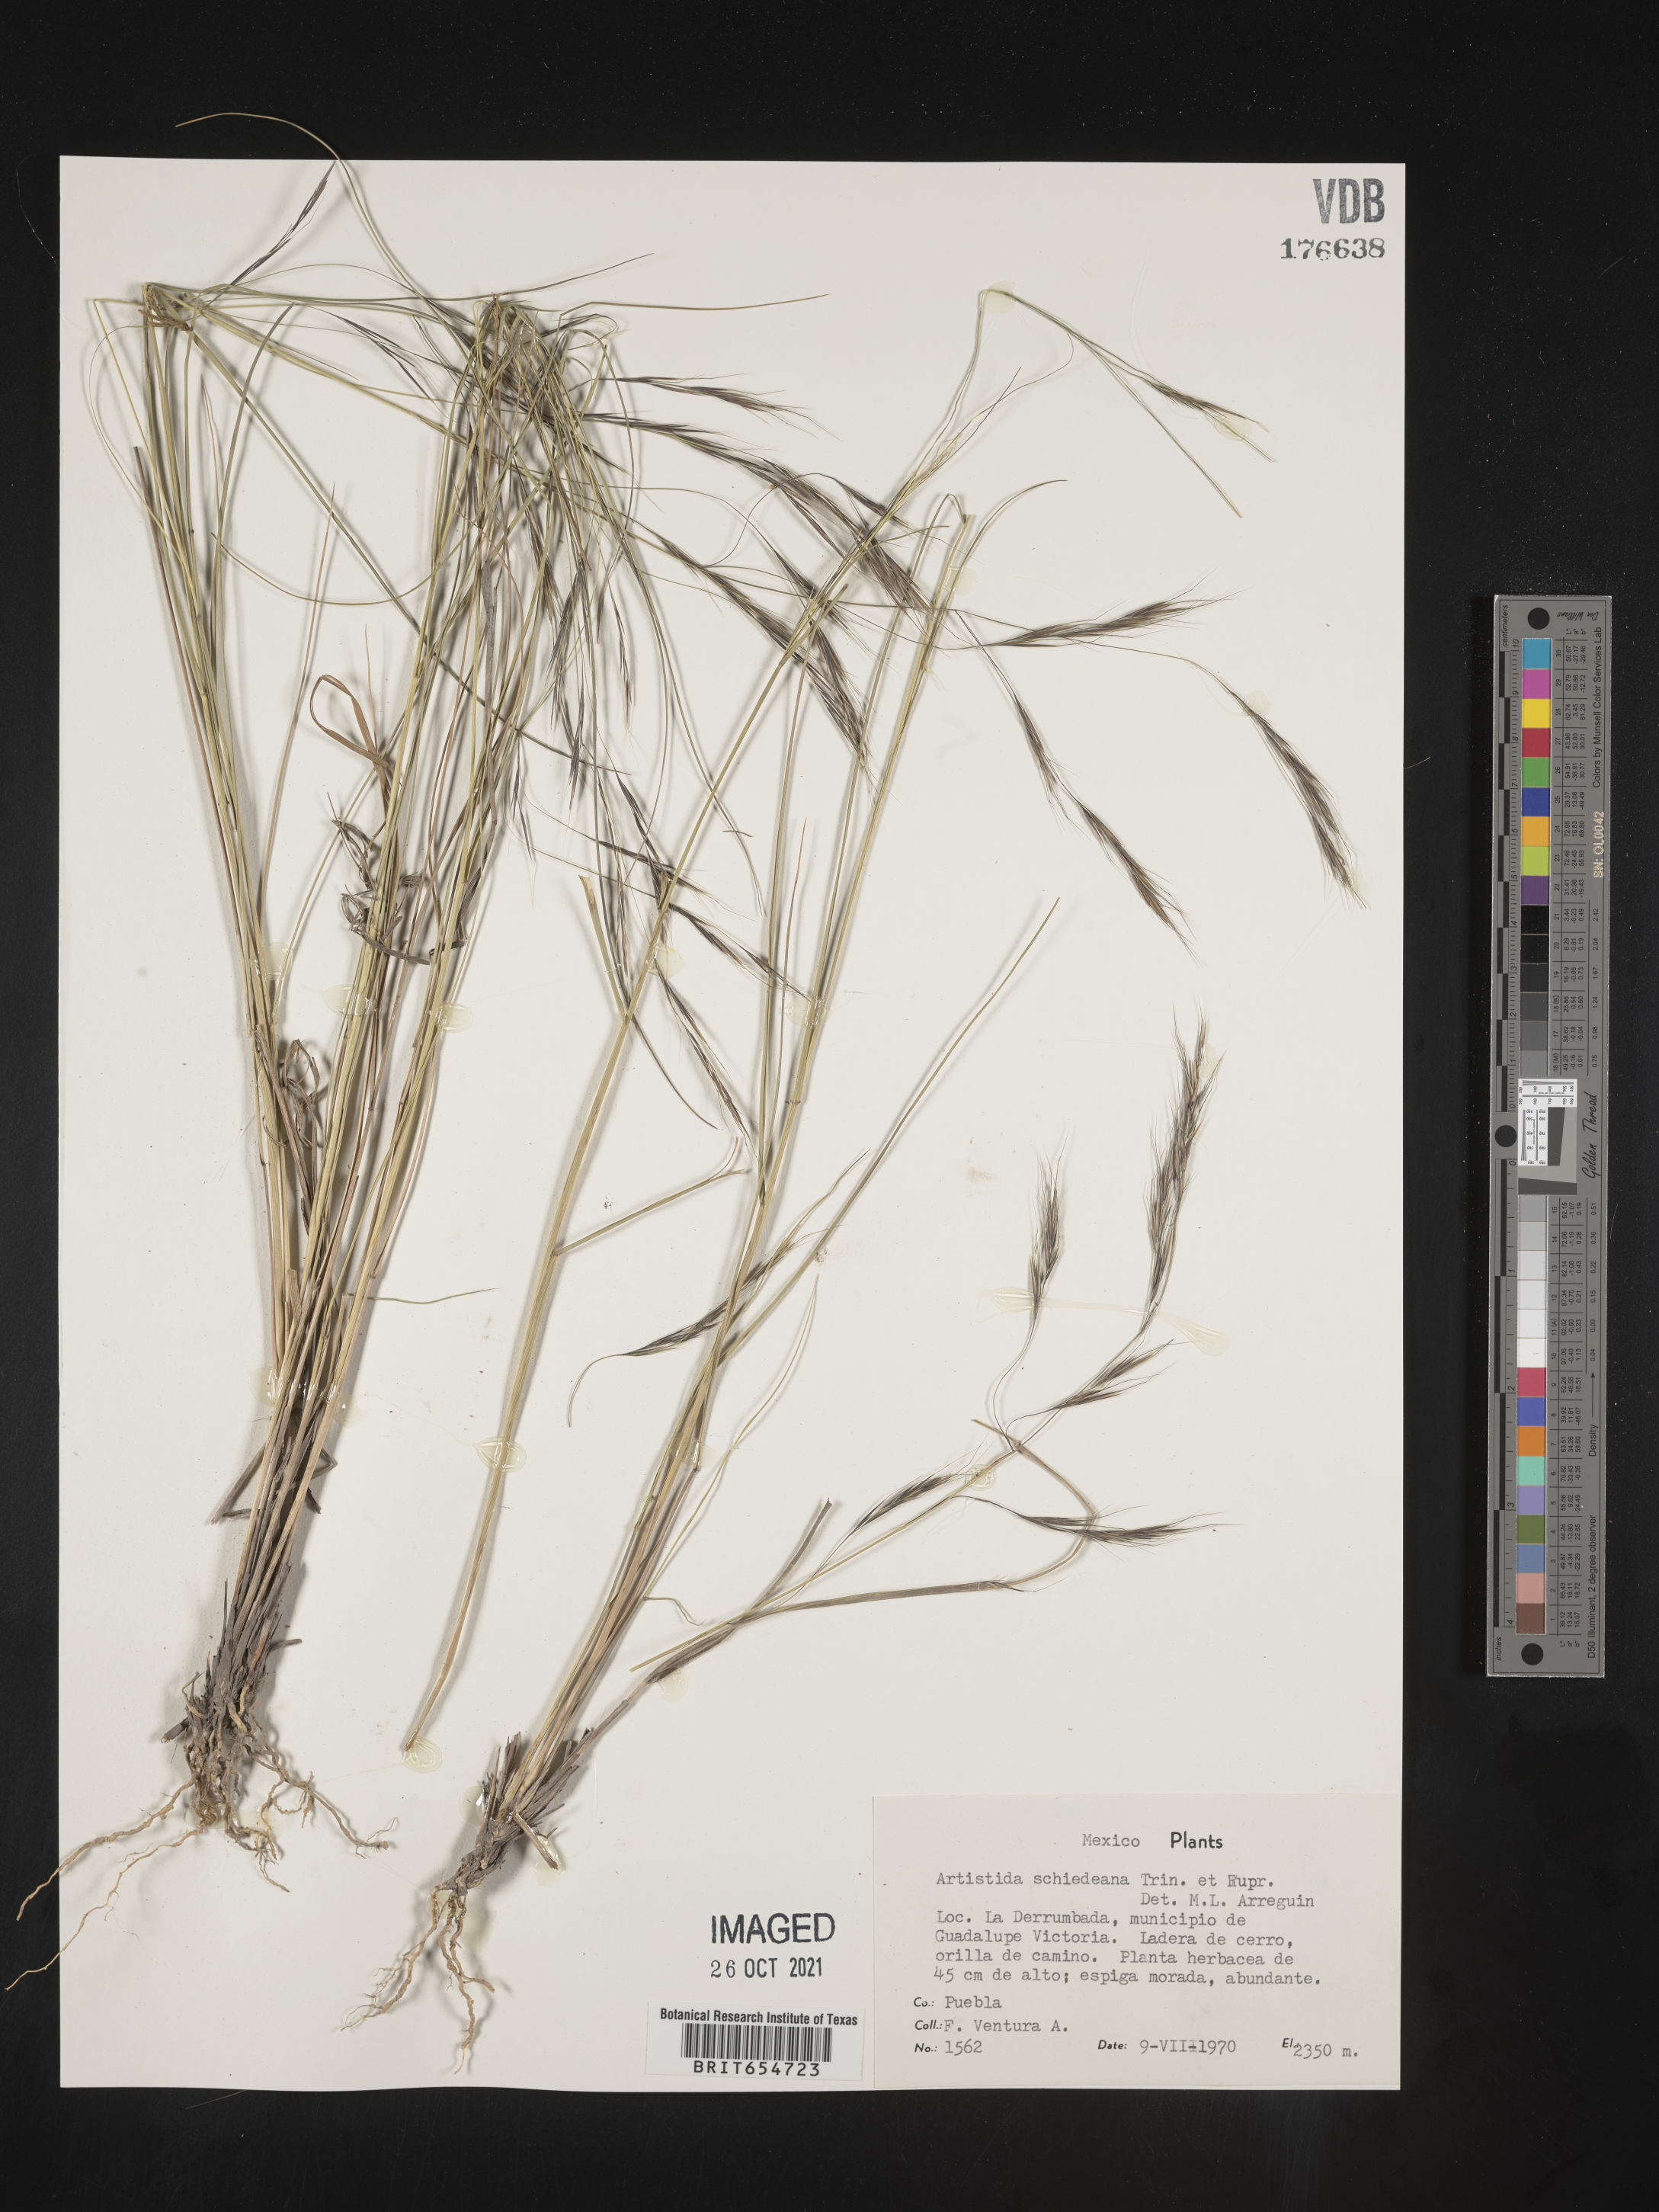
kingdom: Plantae
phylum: Tracheophyta
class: Liliopsida
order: Poales
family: Poaceae
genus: Aristida
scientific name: Aristida
